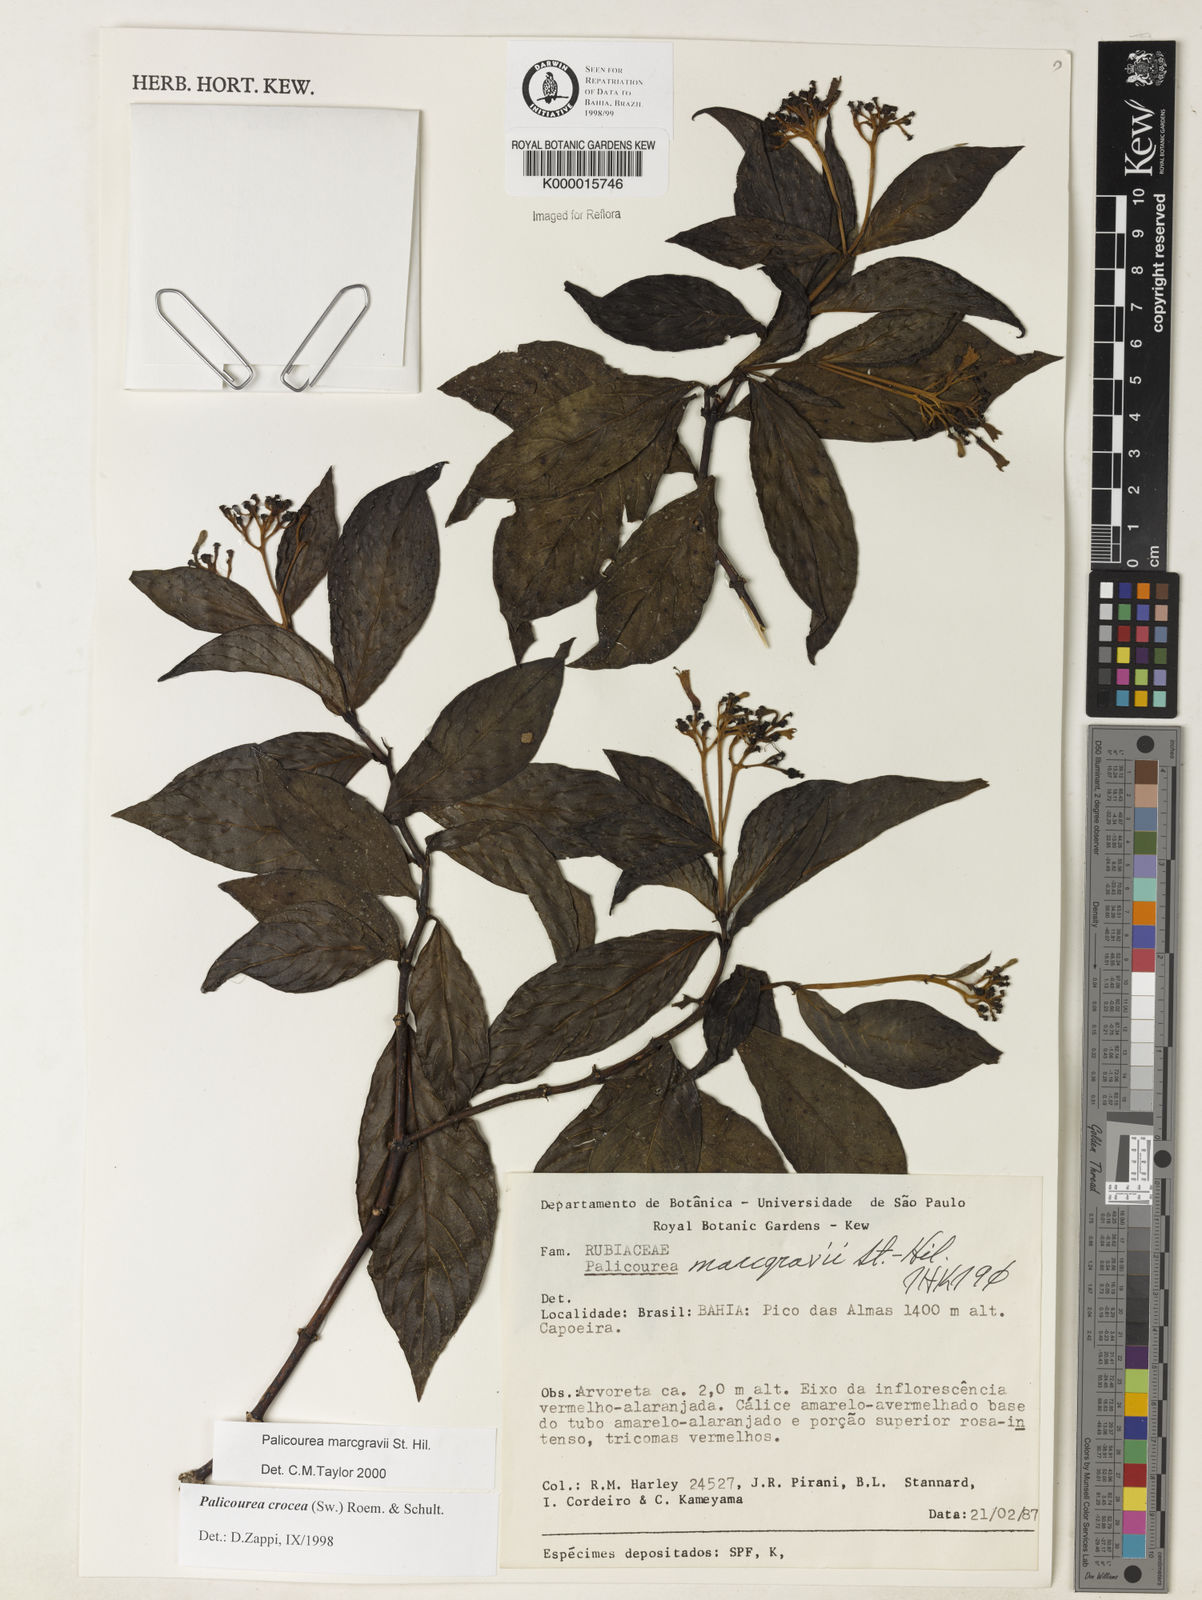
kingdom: Plantae
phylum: Tracheophyta
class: Magnoliopsida
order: Gentianales
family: Rubiaceae
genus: Palicourea
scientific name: Palicourea marcgravii
